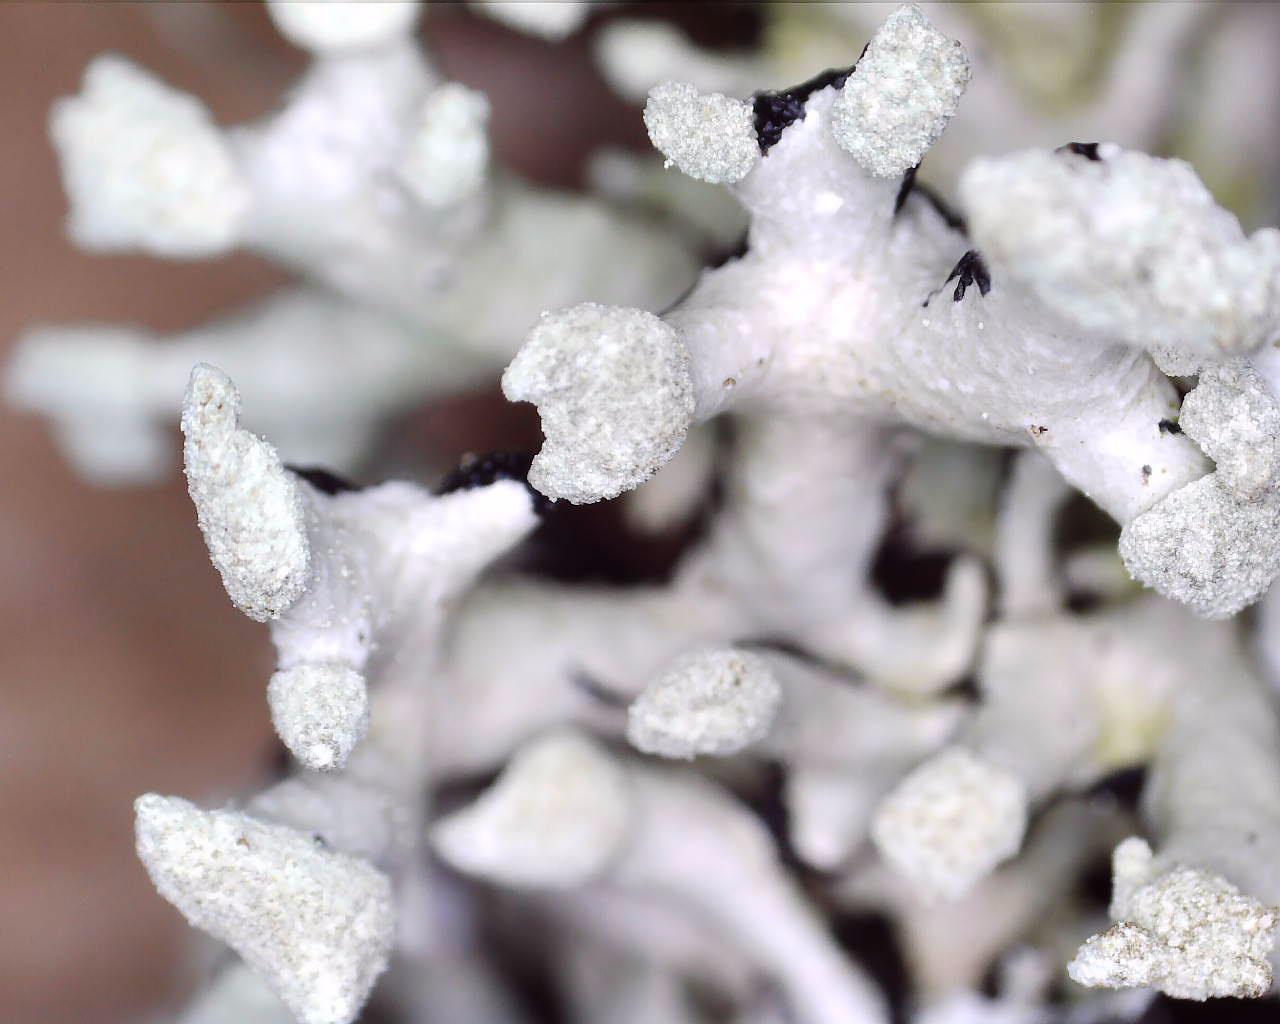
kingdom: Fungi
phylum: Ascomycota
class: Lecanoromycetes
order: Lecanorales
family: Parmeliaceae
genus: Hypogymnia
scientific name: Hypogymnia tubulosa
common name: finger-kvistlav
